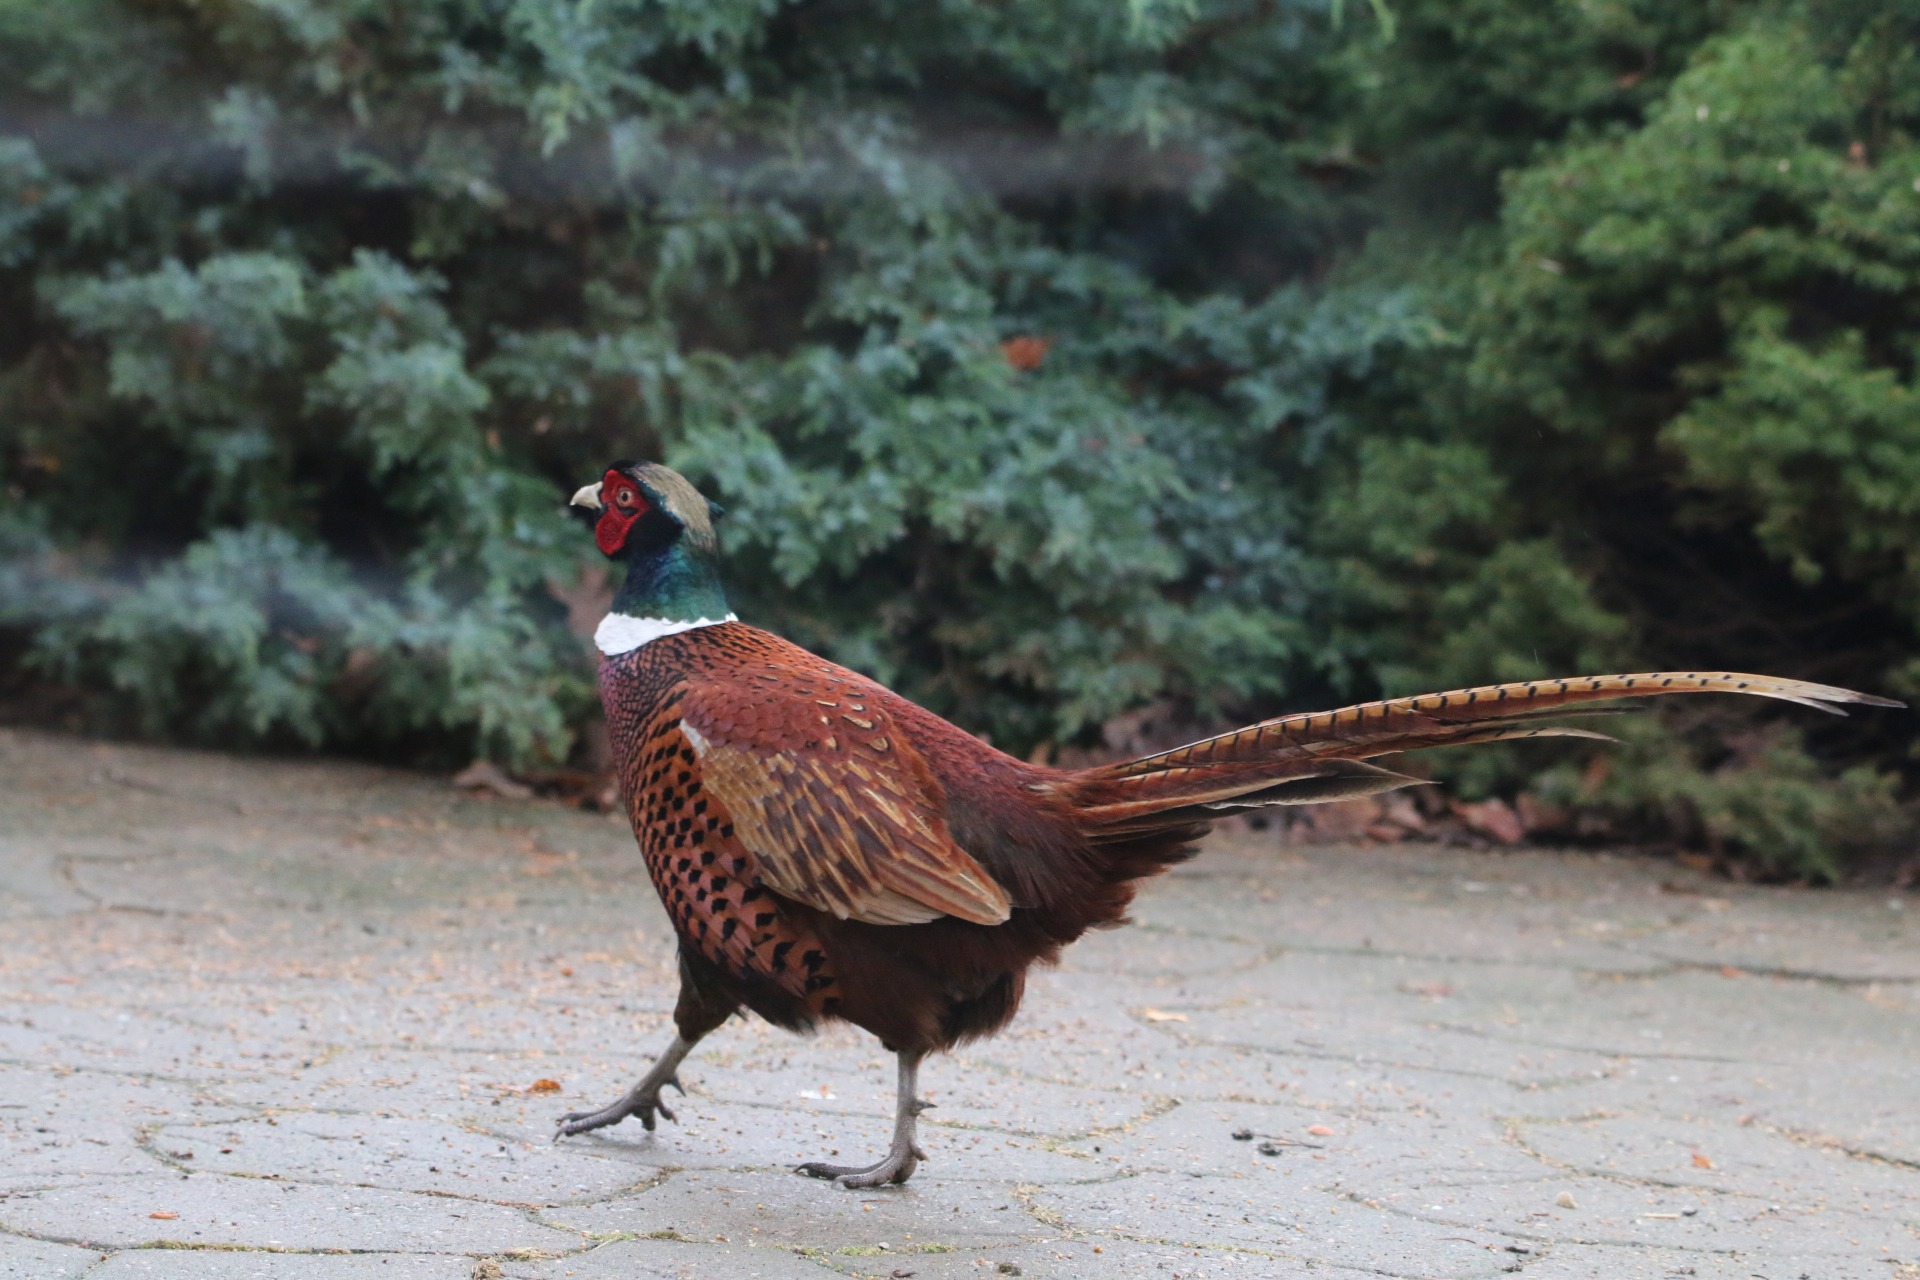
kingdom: Animalia
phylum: Chordata
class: Aves
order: Galliformes
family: Phasianidae
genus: Phasianus
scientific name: Phasianus colchicus
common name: Fasan
